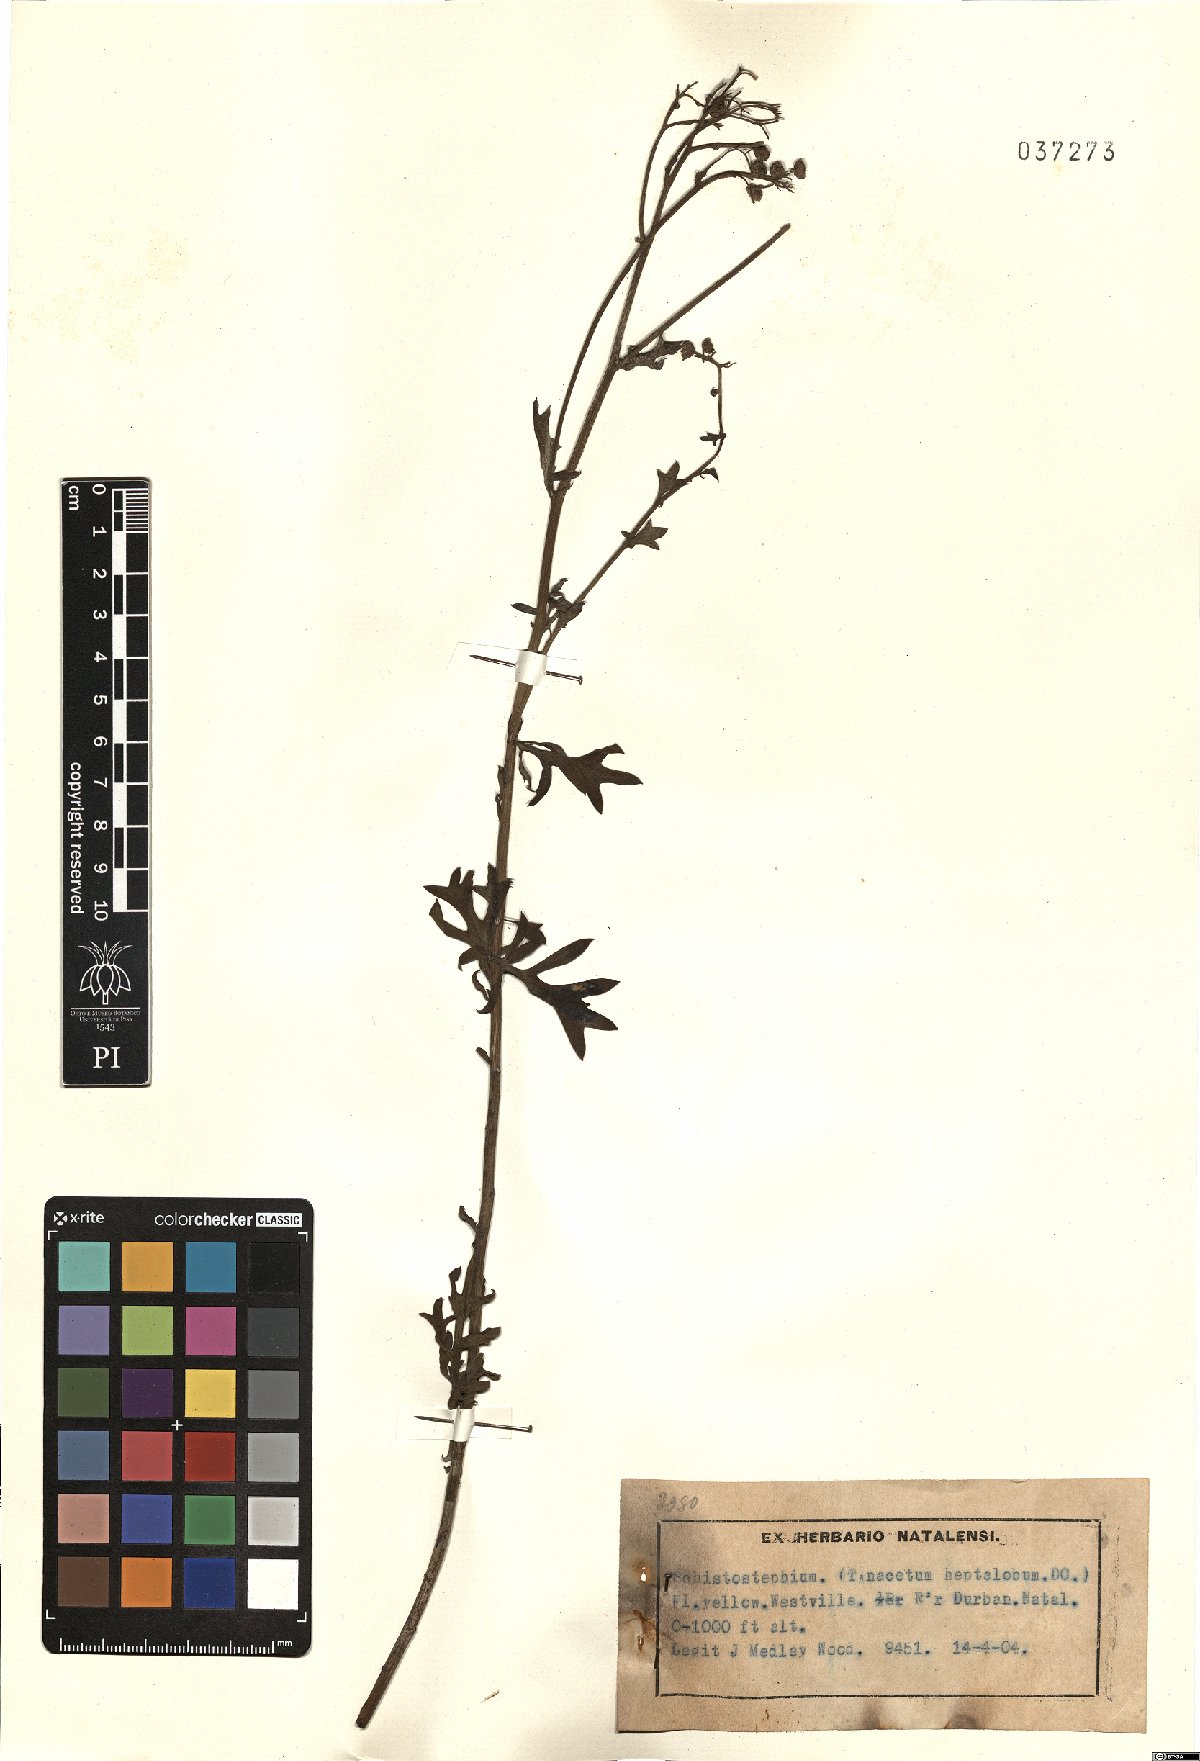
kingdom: Plantae
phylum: Tracheophyta
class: Magnoliopsida
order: Asterales
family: Asteraceae
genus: Schistostephium
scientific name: Schistostephium crataegifolium
